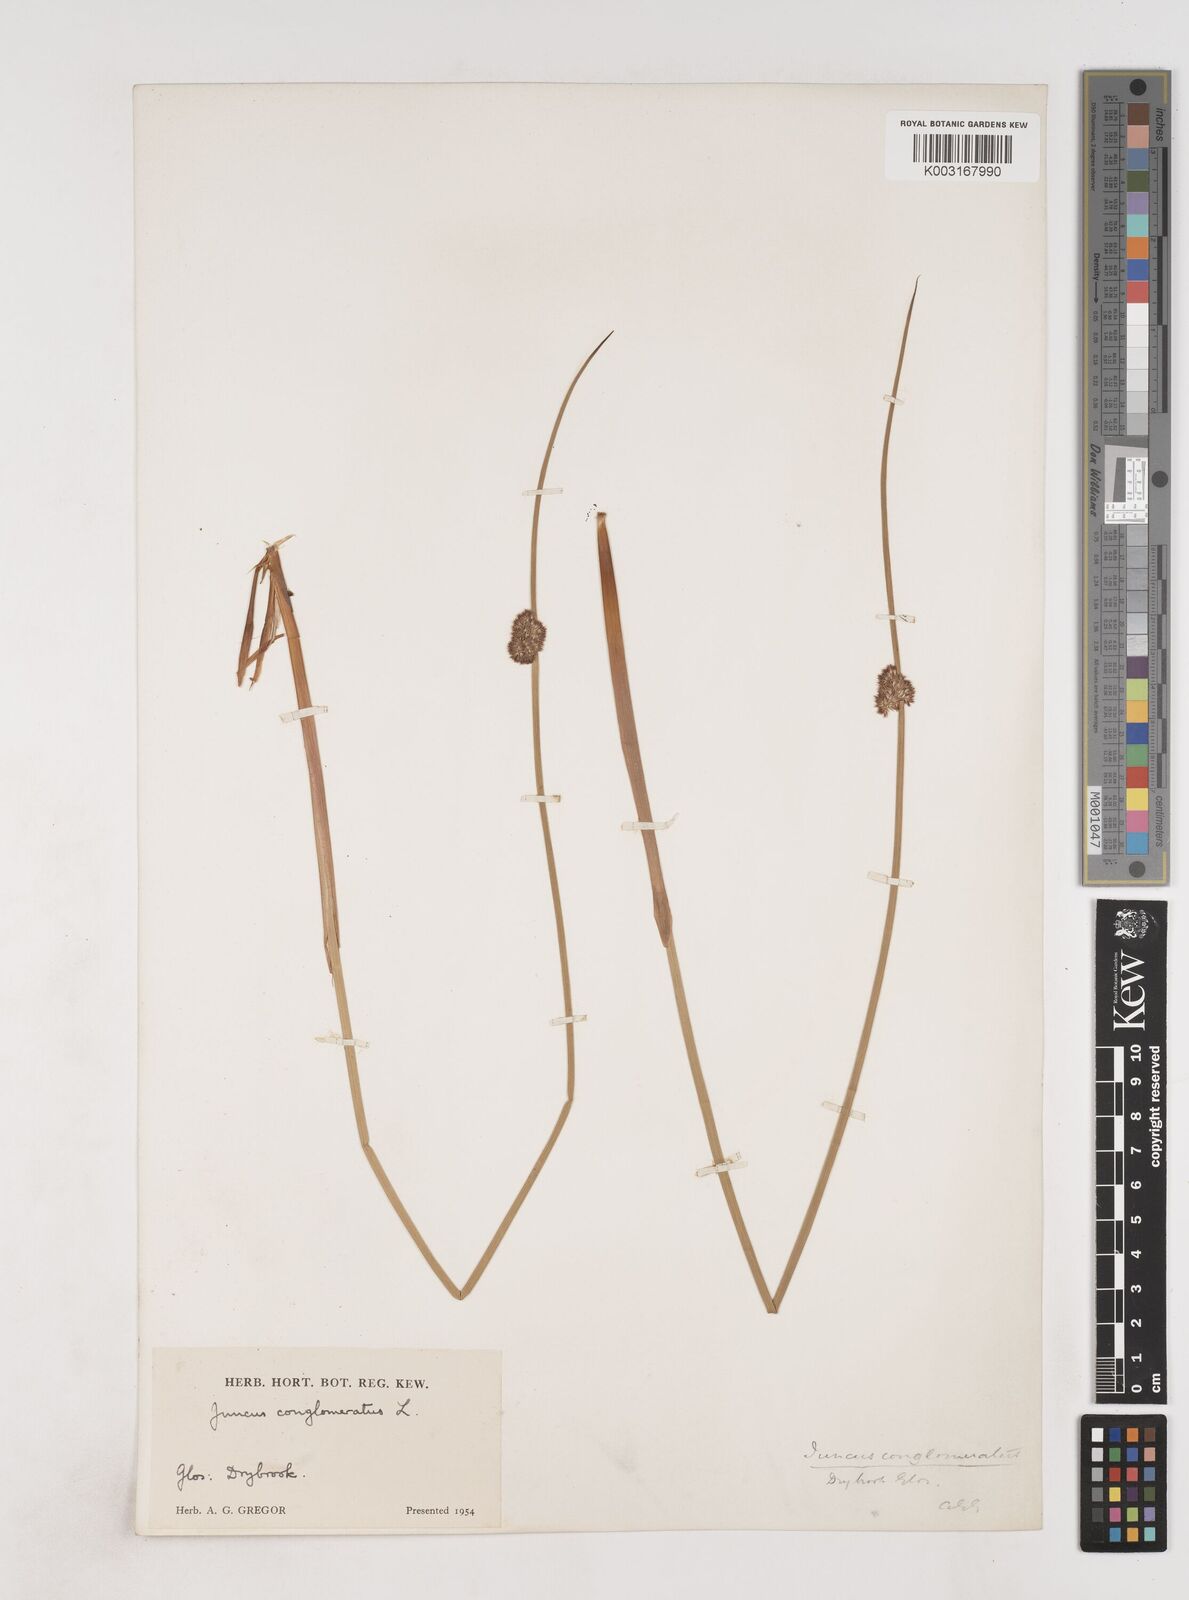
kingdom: Plantae
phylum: Tracheophyta
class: Liliopsida
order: Poales
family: Juncaceae
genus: Juncus
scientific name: Juncus conglomeratus
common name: Compact rush
